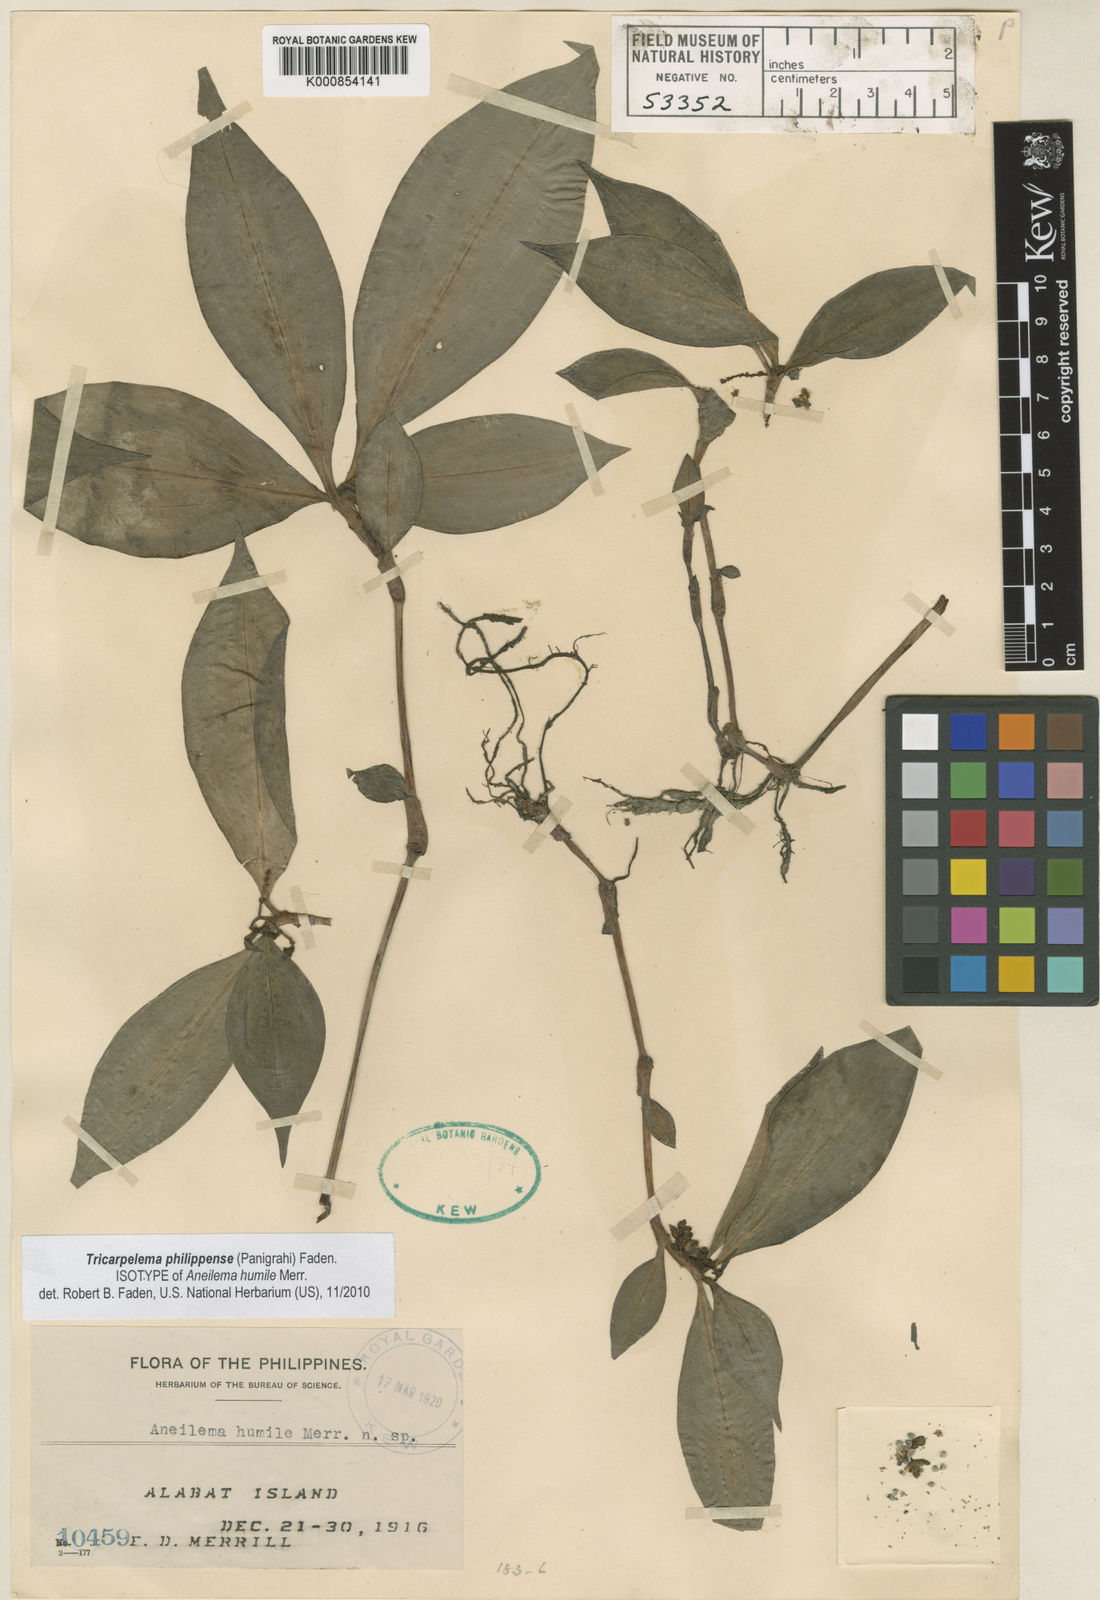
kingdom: Plantae
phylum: Tracheophyta
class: Liliopsida
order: Commelinales
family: Commelinaceae
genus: Tricarpelema
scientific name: Tricarpelema philippense
